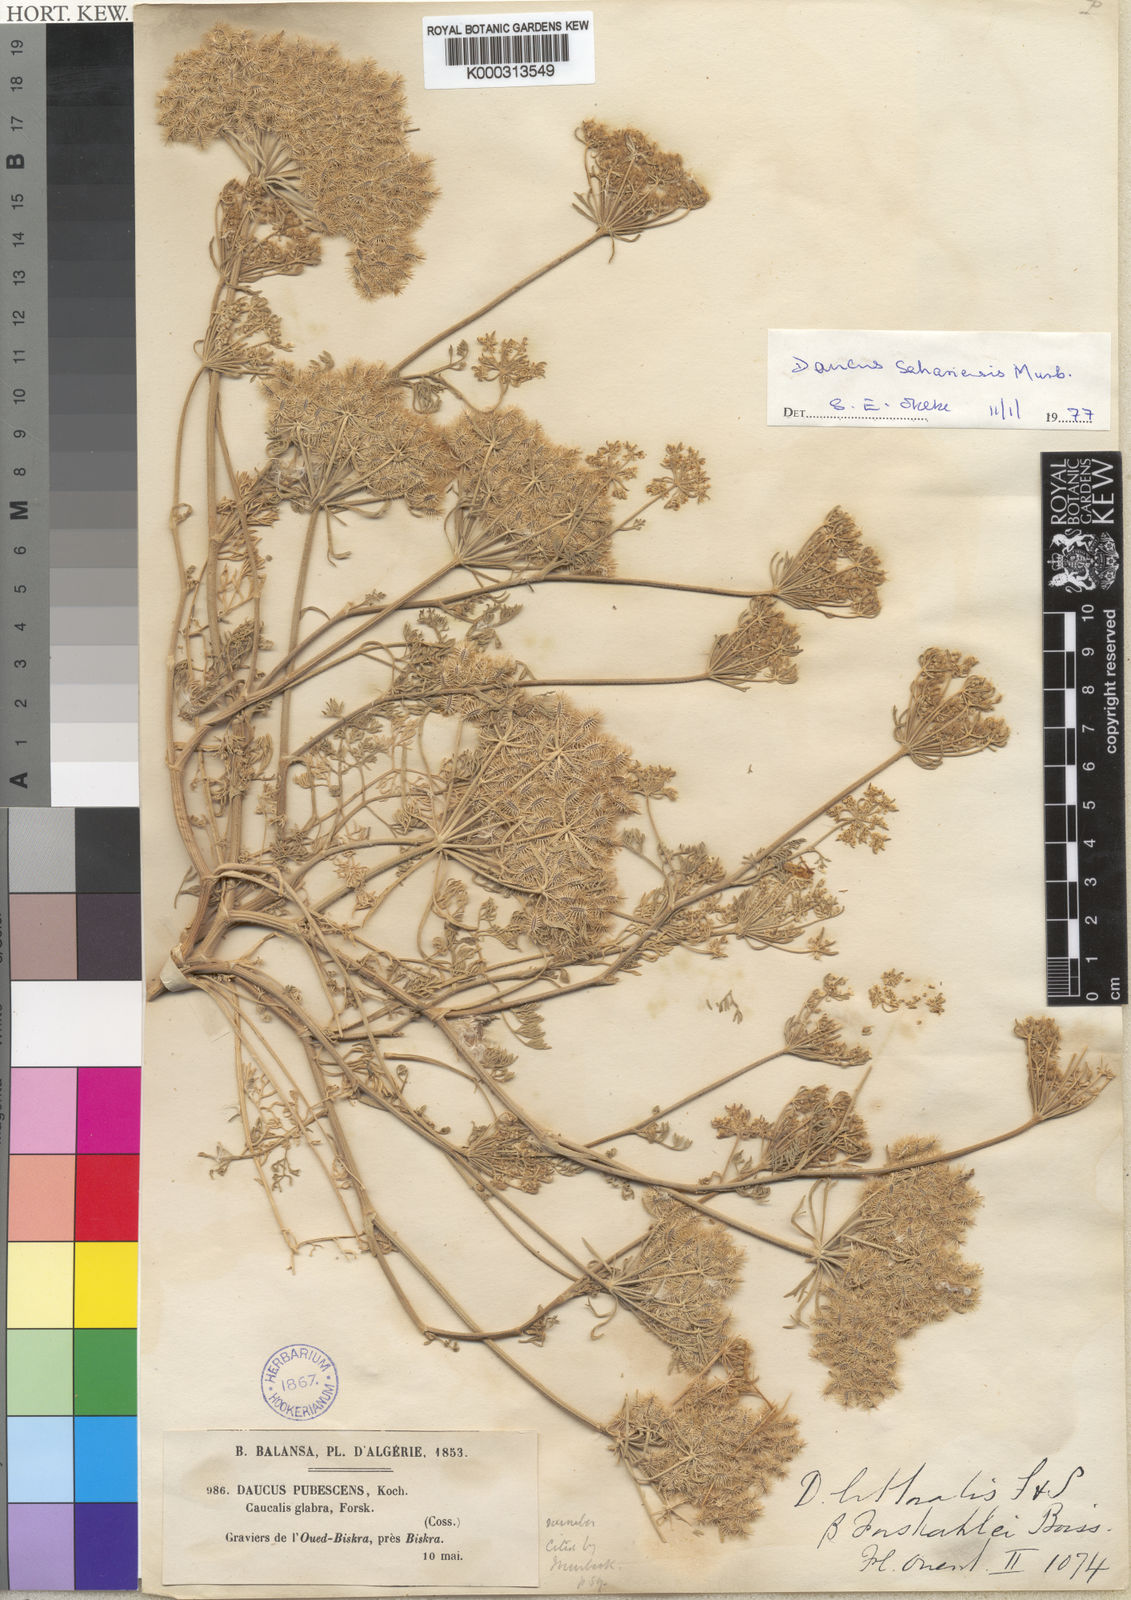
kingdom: Plantae
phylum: Tracheophyta
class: Magnoliopsida
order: Apiales
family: Apiaceae
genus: Daucus
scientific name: Daucus sahariensis
